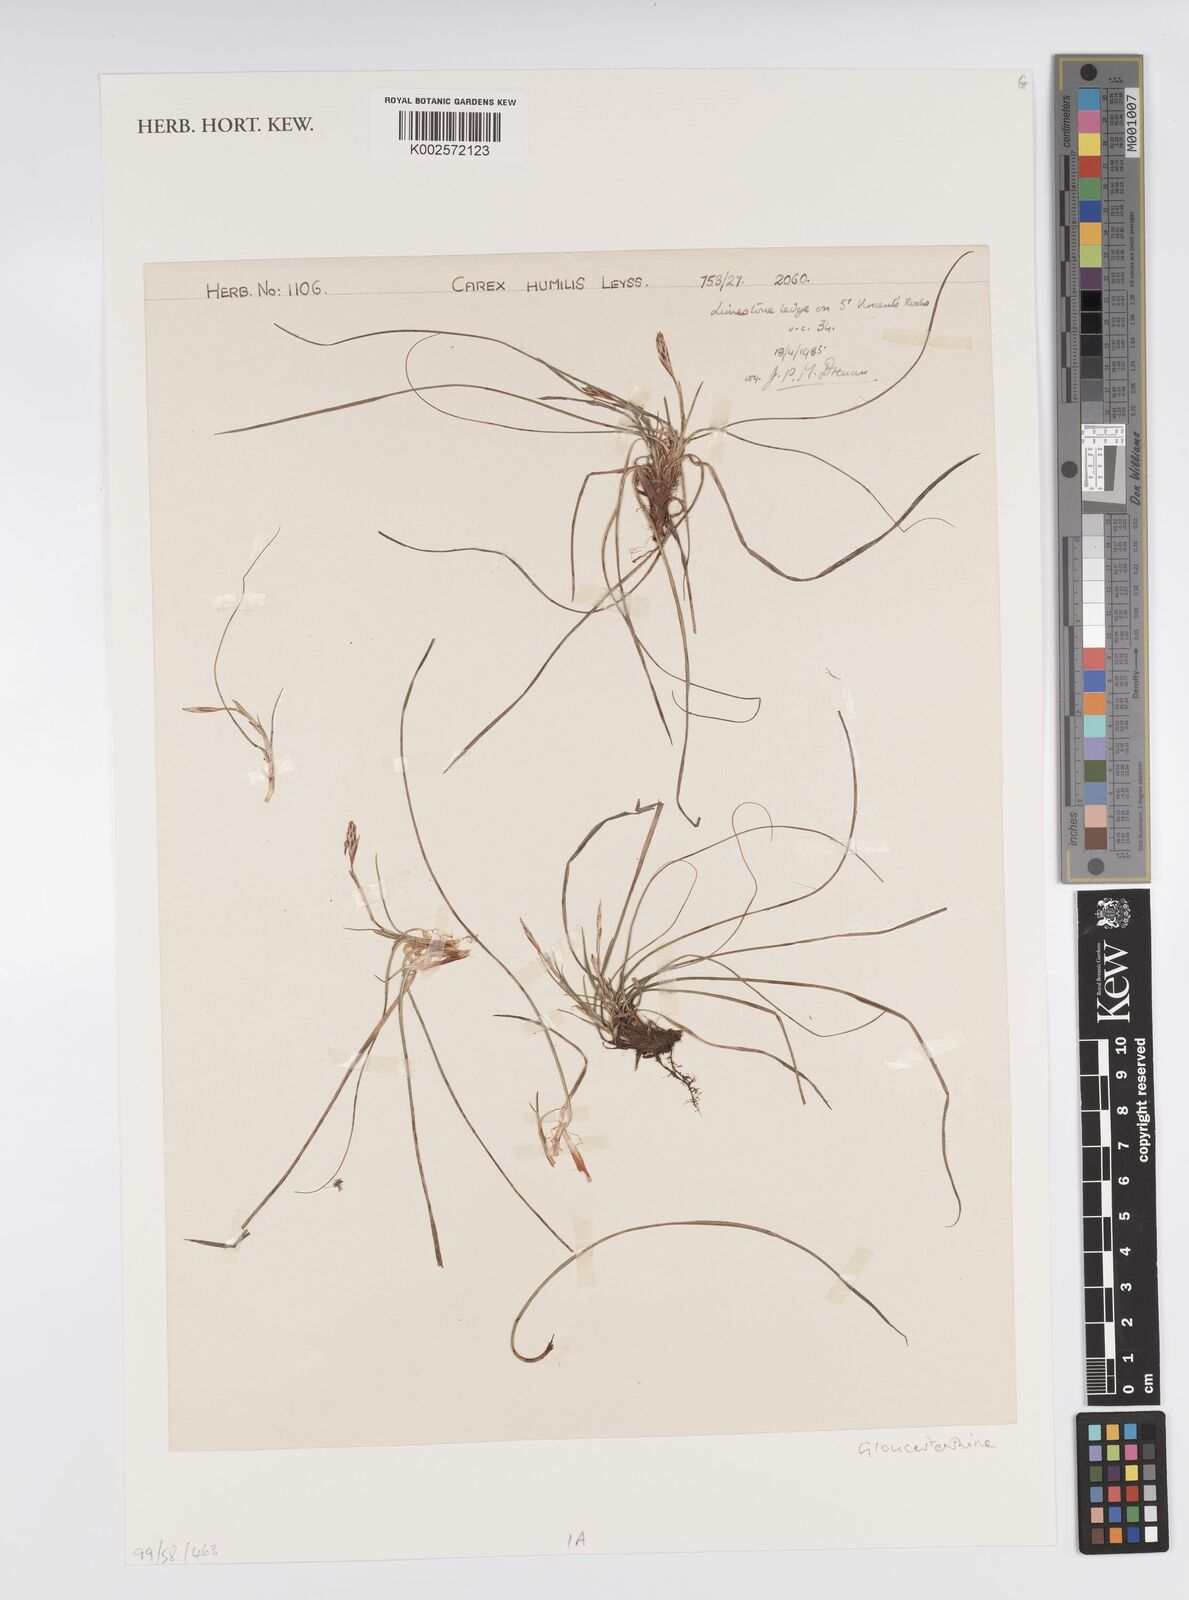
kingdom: Plantae
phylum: Tracheophyta
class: Liliopsida
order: Poales
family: Cyperaceae
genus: Carex
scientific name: Carex humilis
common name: Dwarf sedge
